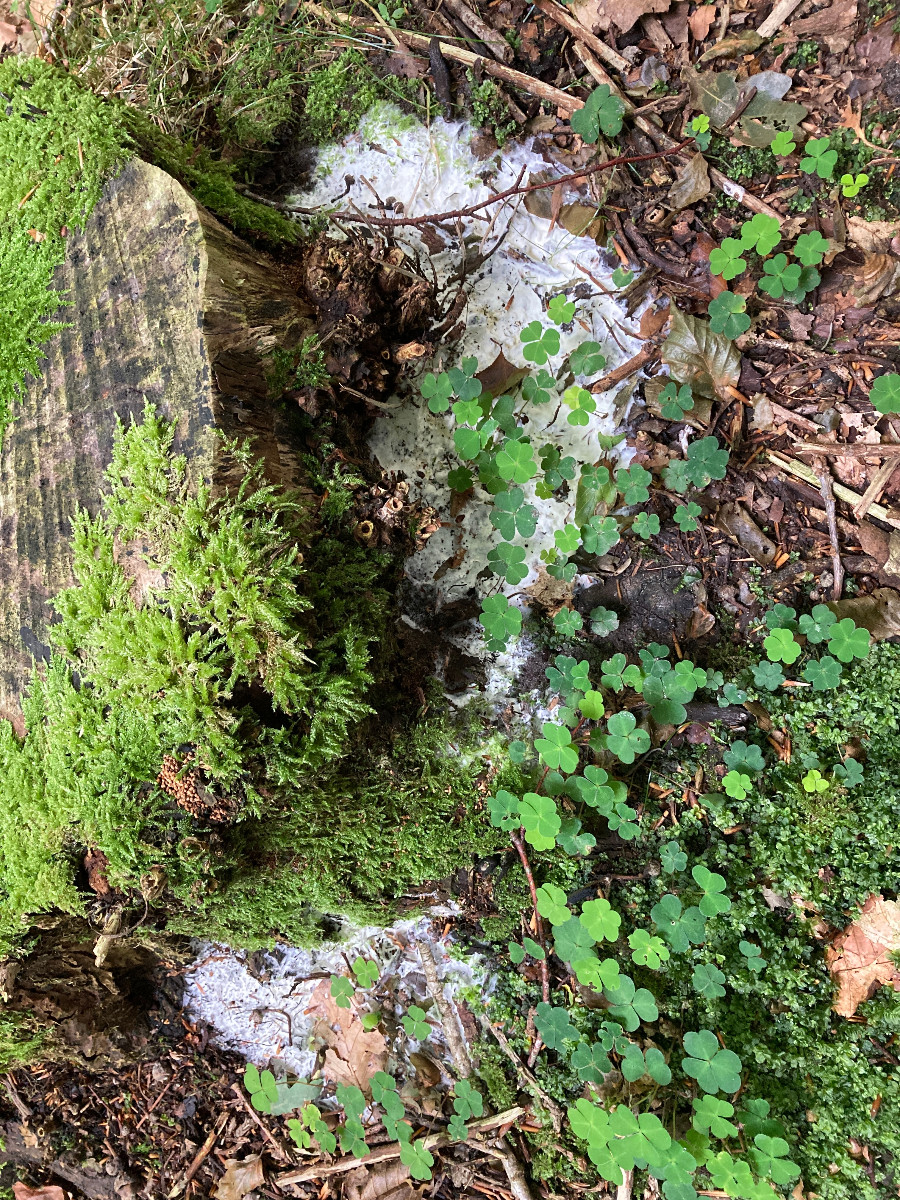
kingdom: Fungi
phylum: Ascomycota
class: Sordariomycetes
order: Hypocreales
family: Hypocreaceae
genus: Trichoderma
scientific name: Trichoderma citrinum
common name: udbredt kødkerne
